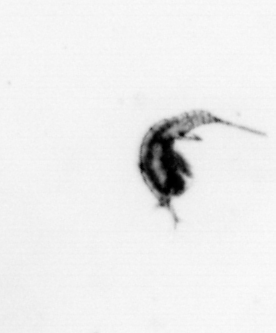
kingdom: Animalia
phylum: Arthropoda
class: Copepoda
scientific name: Copepoda
